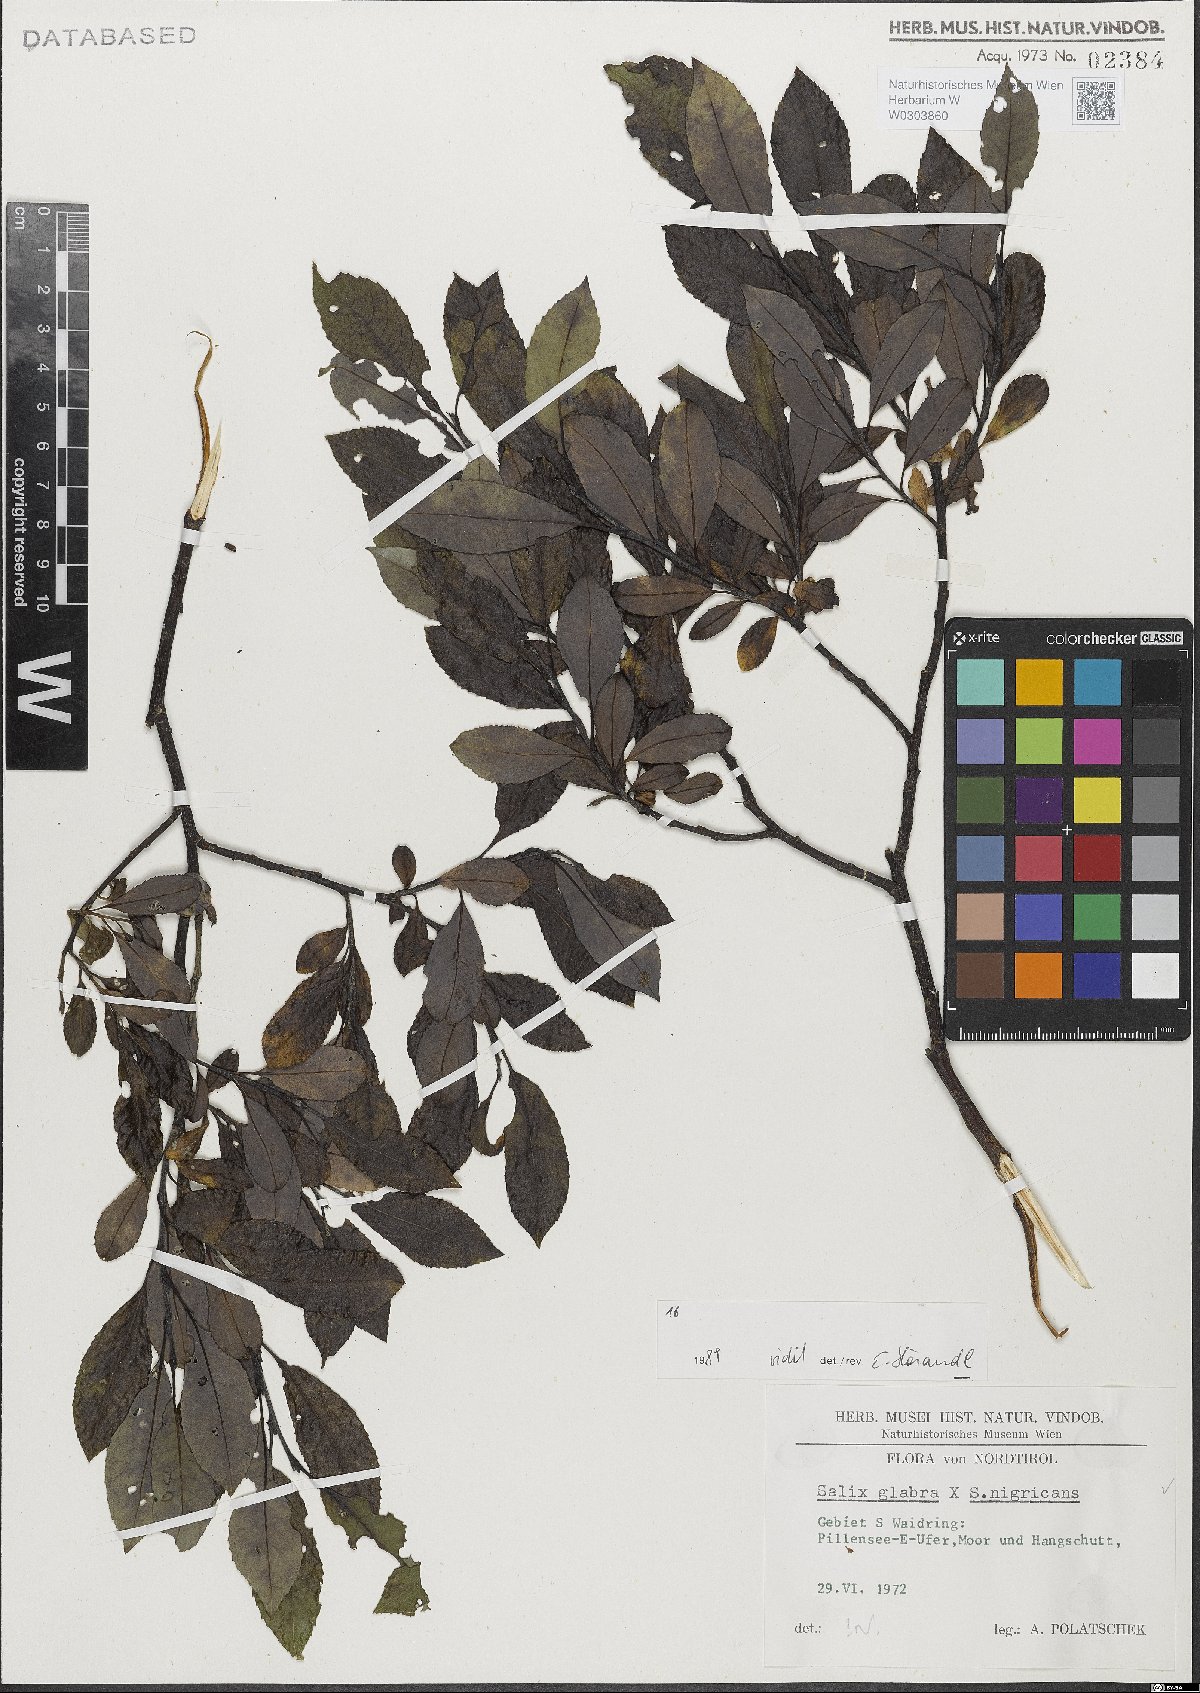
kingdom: Plantae
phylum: Tracheophyta
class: Magnoliopsida
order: Malpighiales
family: Salicaceae
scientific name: Salicaceae
